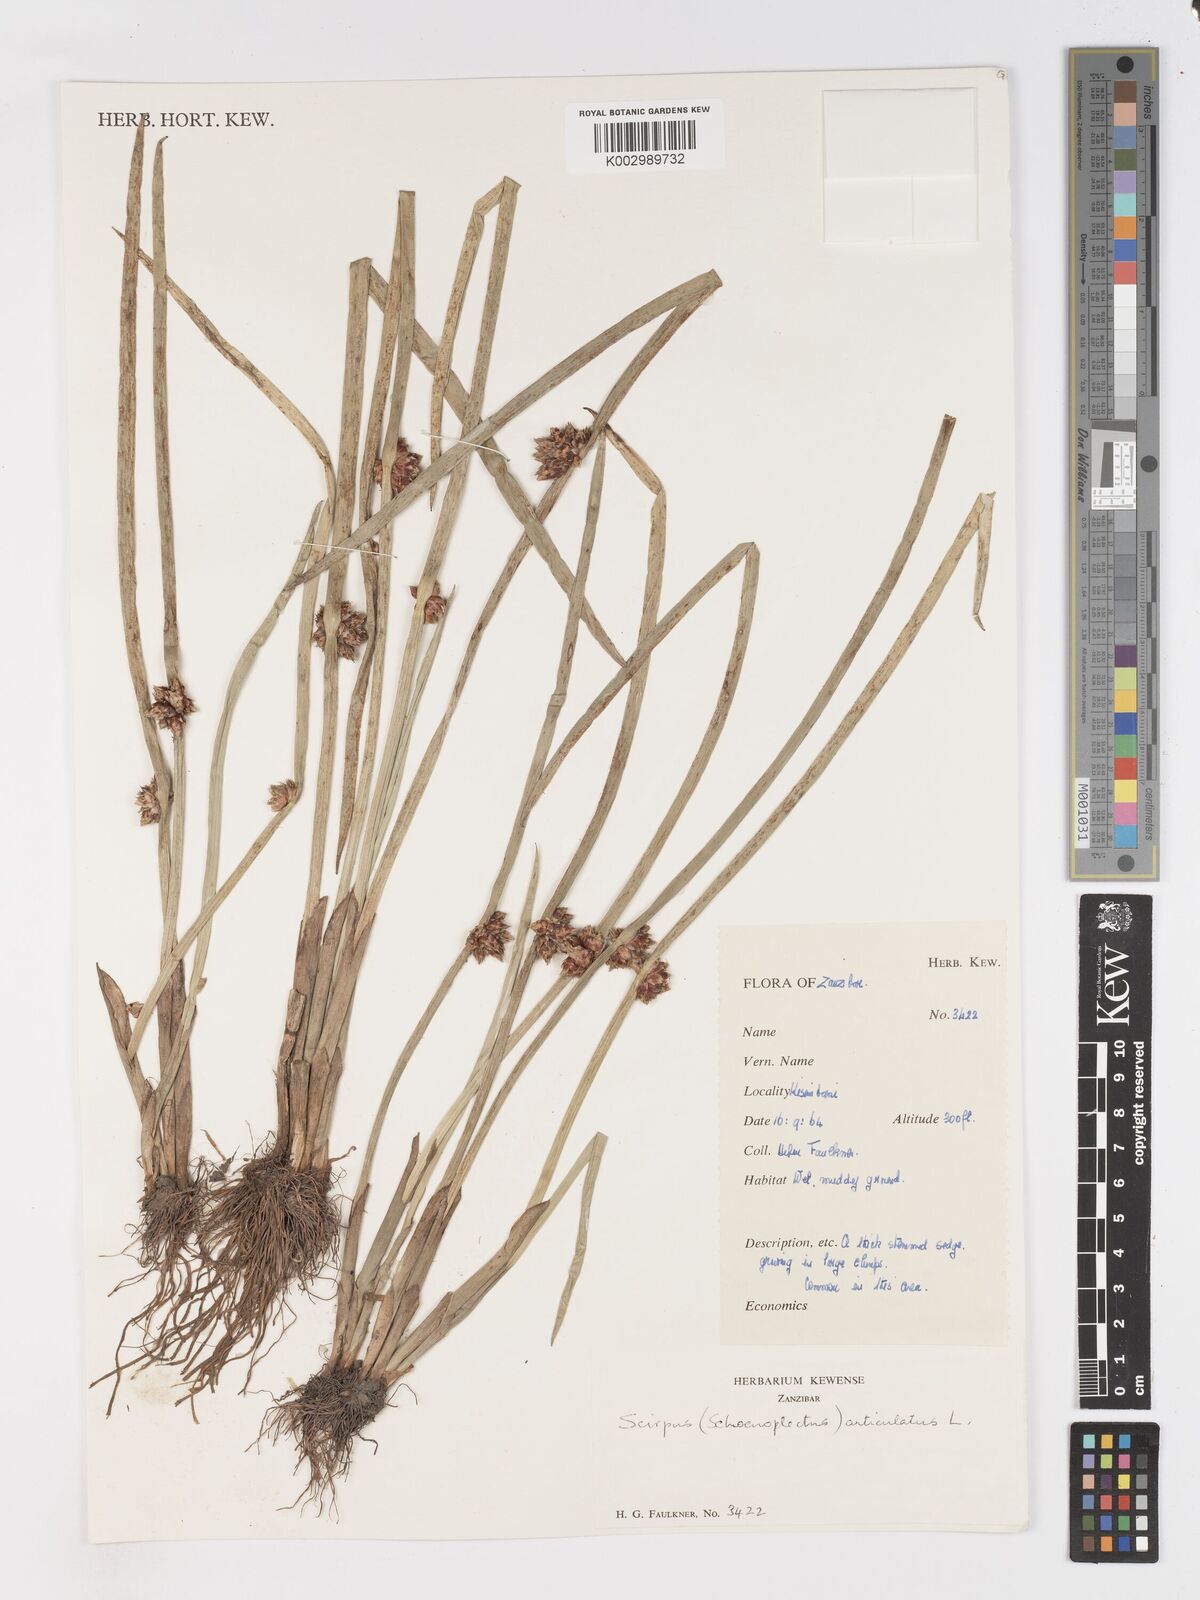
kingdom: Plantae
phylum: Tracheophyta
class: Liliopsida
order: Poales
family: Cyperaceae
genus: Schoenoplectiella
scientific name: Schoenoplectiella articulata
